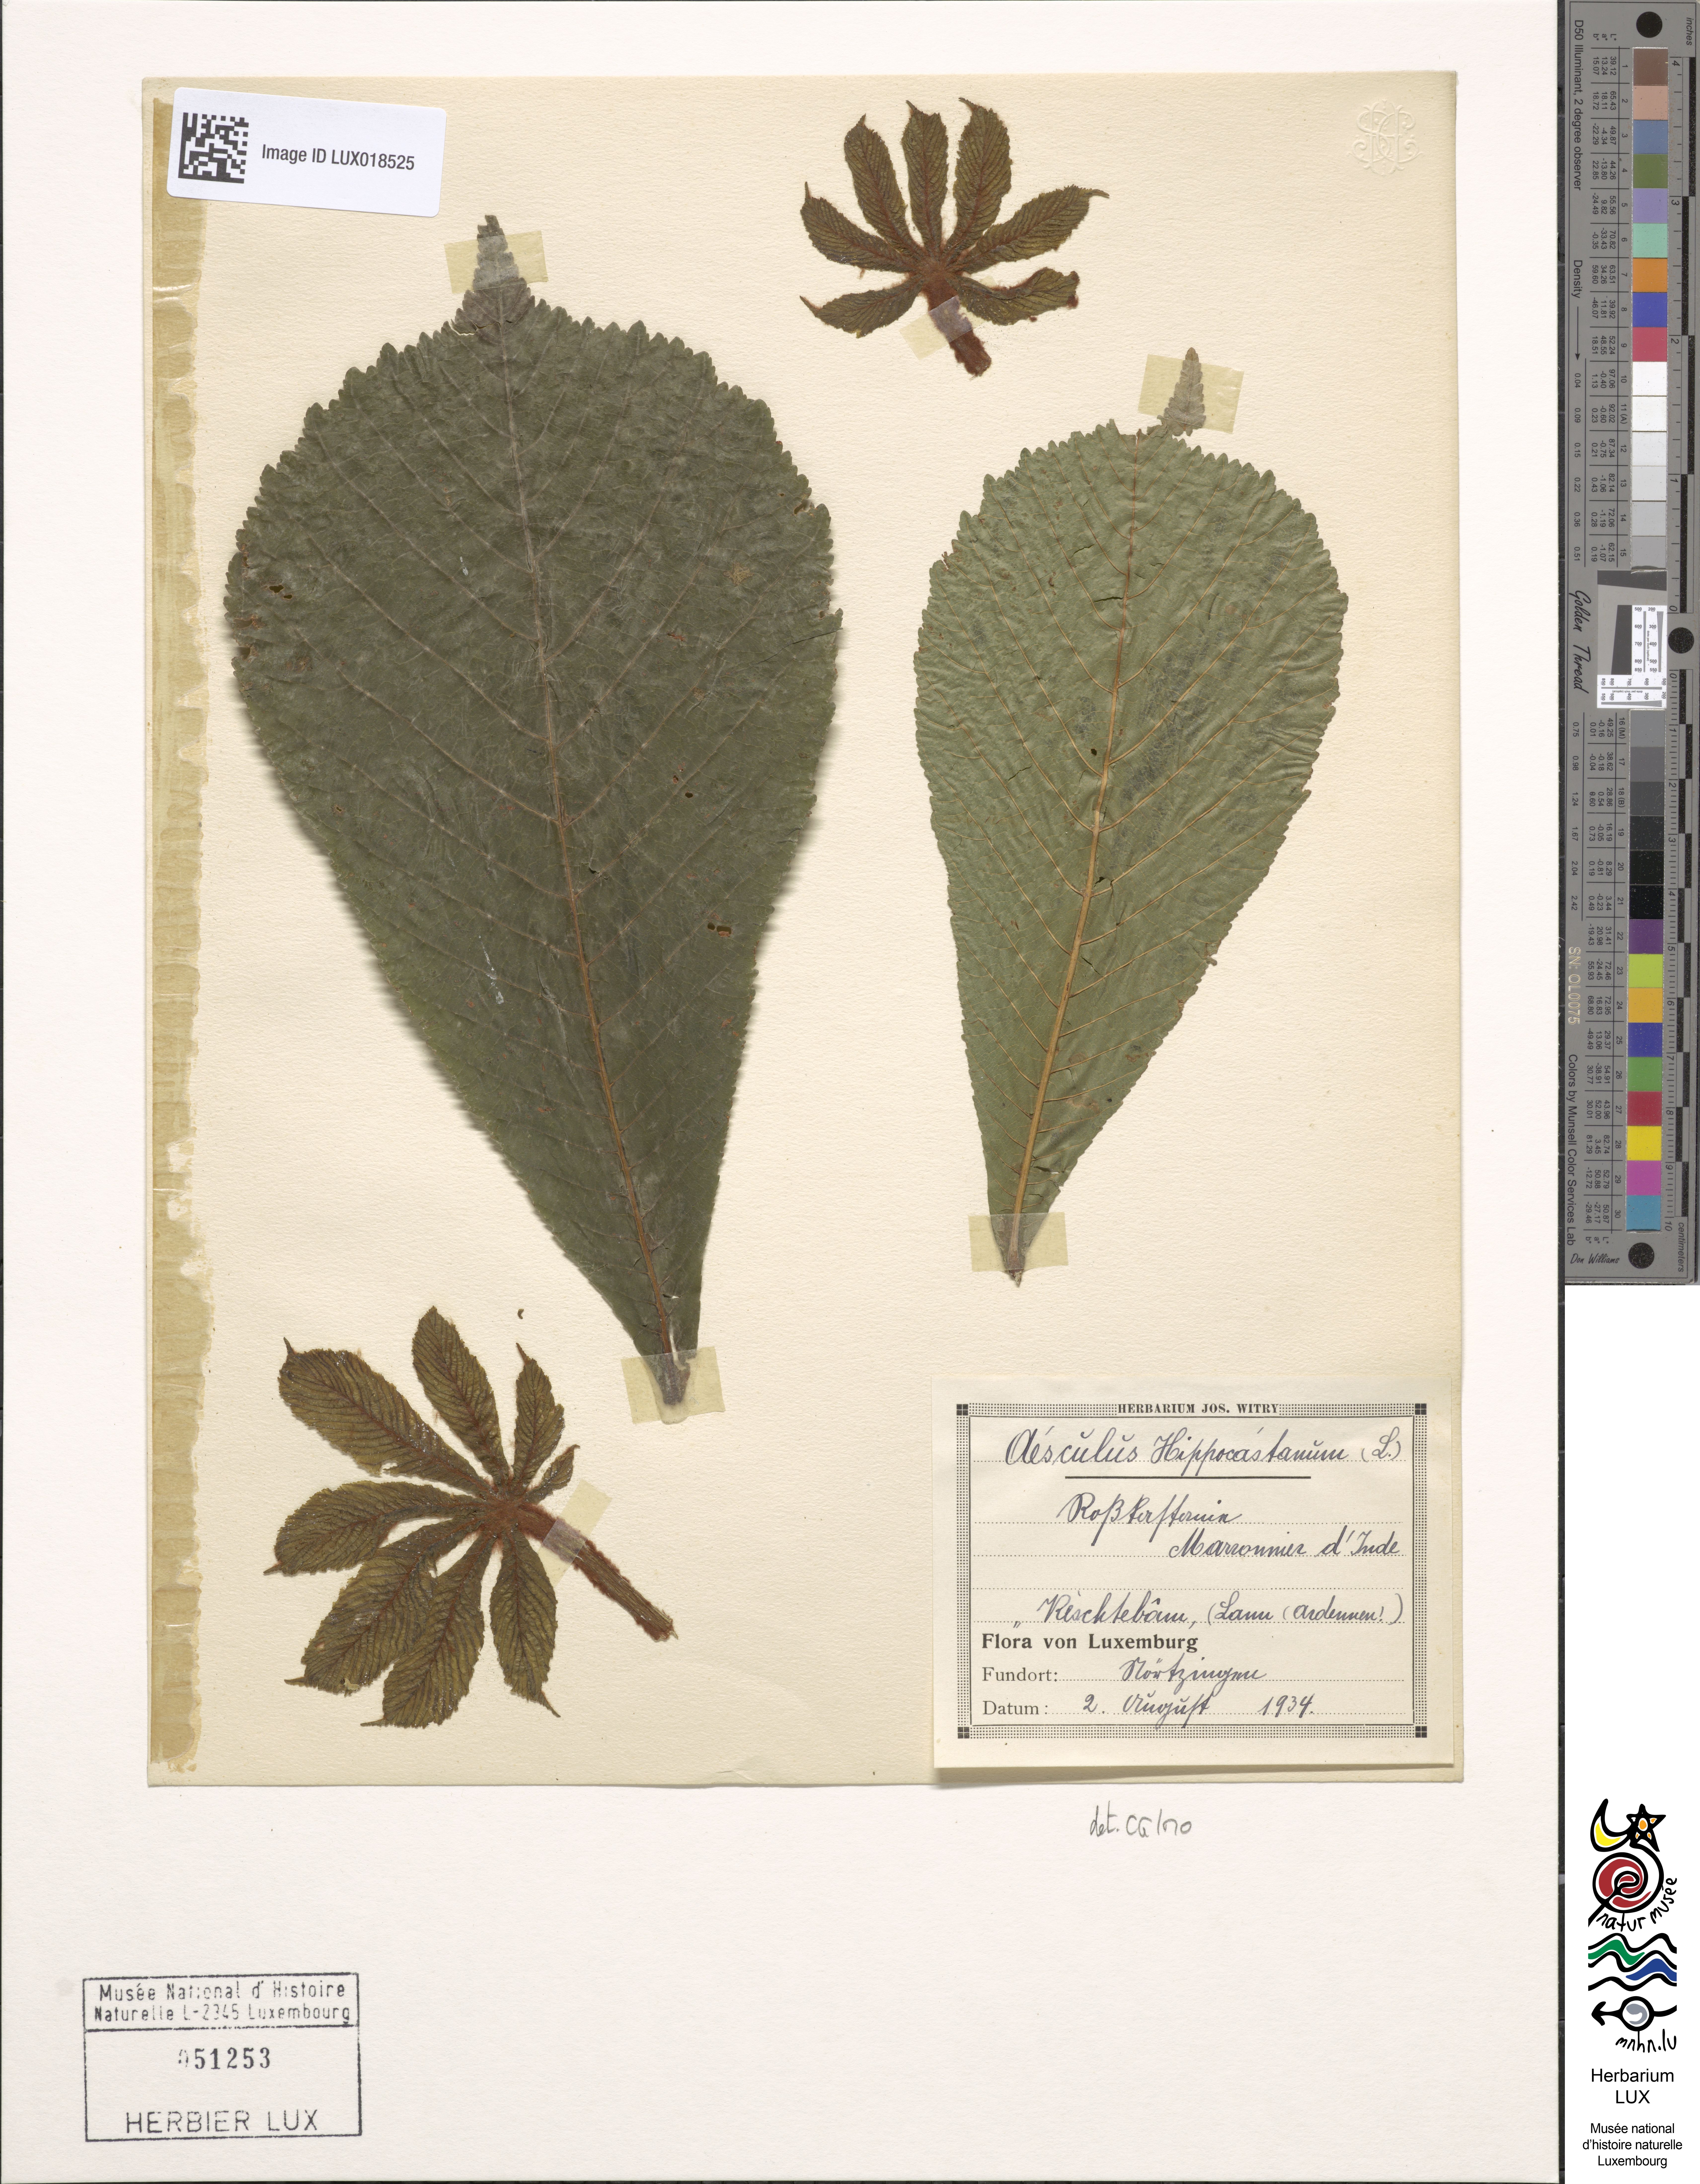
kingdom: Plantae
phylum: Tracheophyta
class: Magnoliopsida
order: Sapindales
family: Sapindaceae
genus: Aesculus
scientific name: Aesculus hippocastanum
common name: Horse-chestnut
